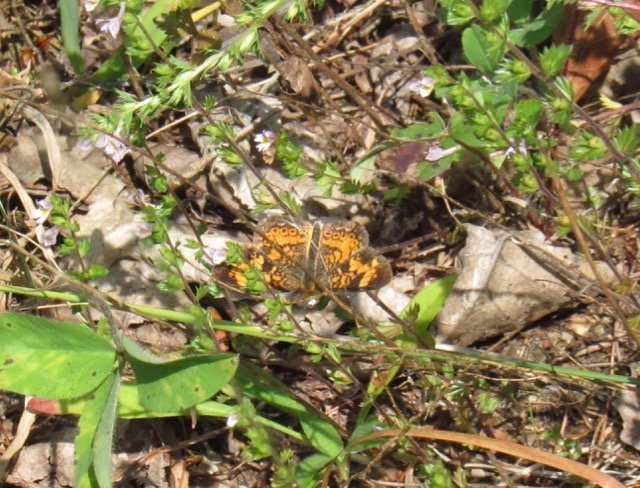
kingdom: Animalia
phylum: Arthropoda
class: Insecta
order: Lepidoptera
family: Nymphalidae
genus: Phyciodes
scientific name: Phyciodes tharos
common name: Pearl Crescent
